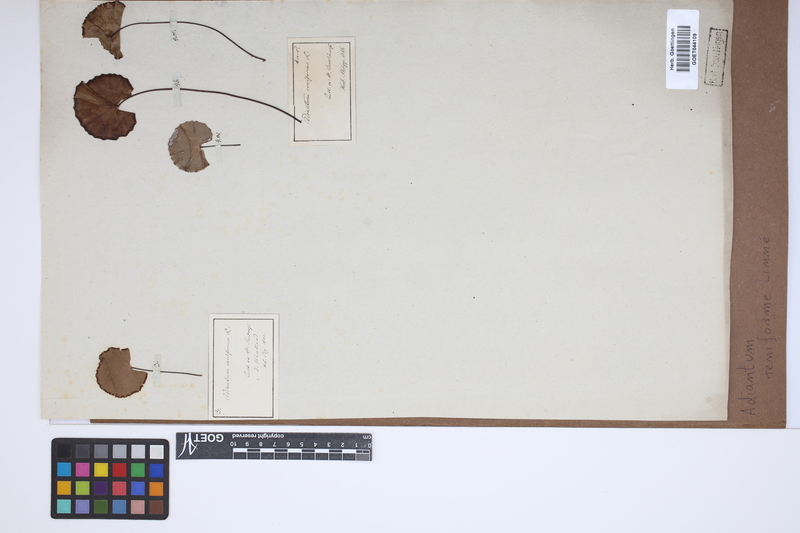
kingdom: Plantae
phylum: Tracheophyta
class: Polypodiopsida
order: Polypodiales
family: Pteridaceae
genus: Adiantum
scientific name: Adiantum reniforme
